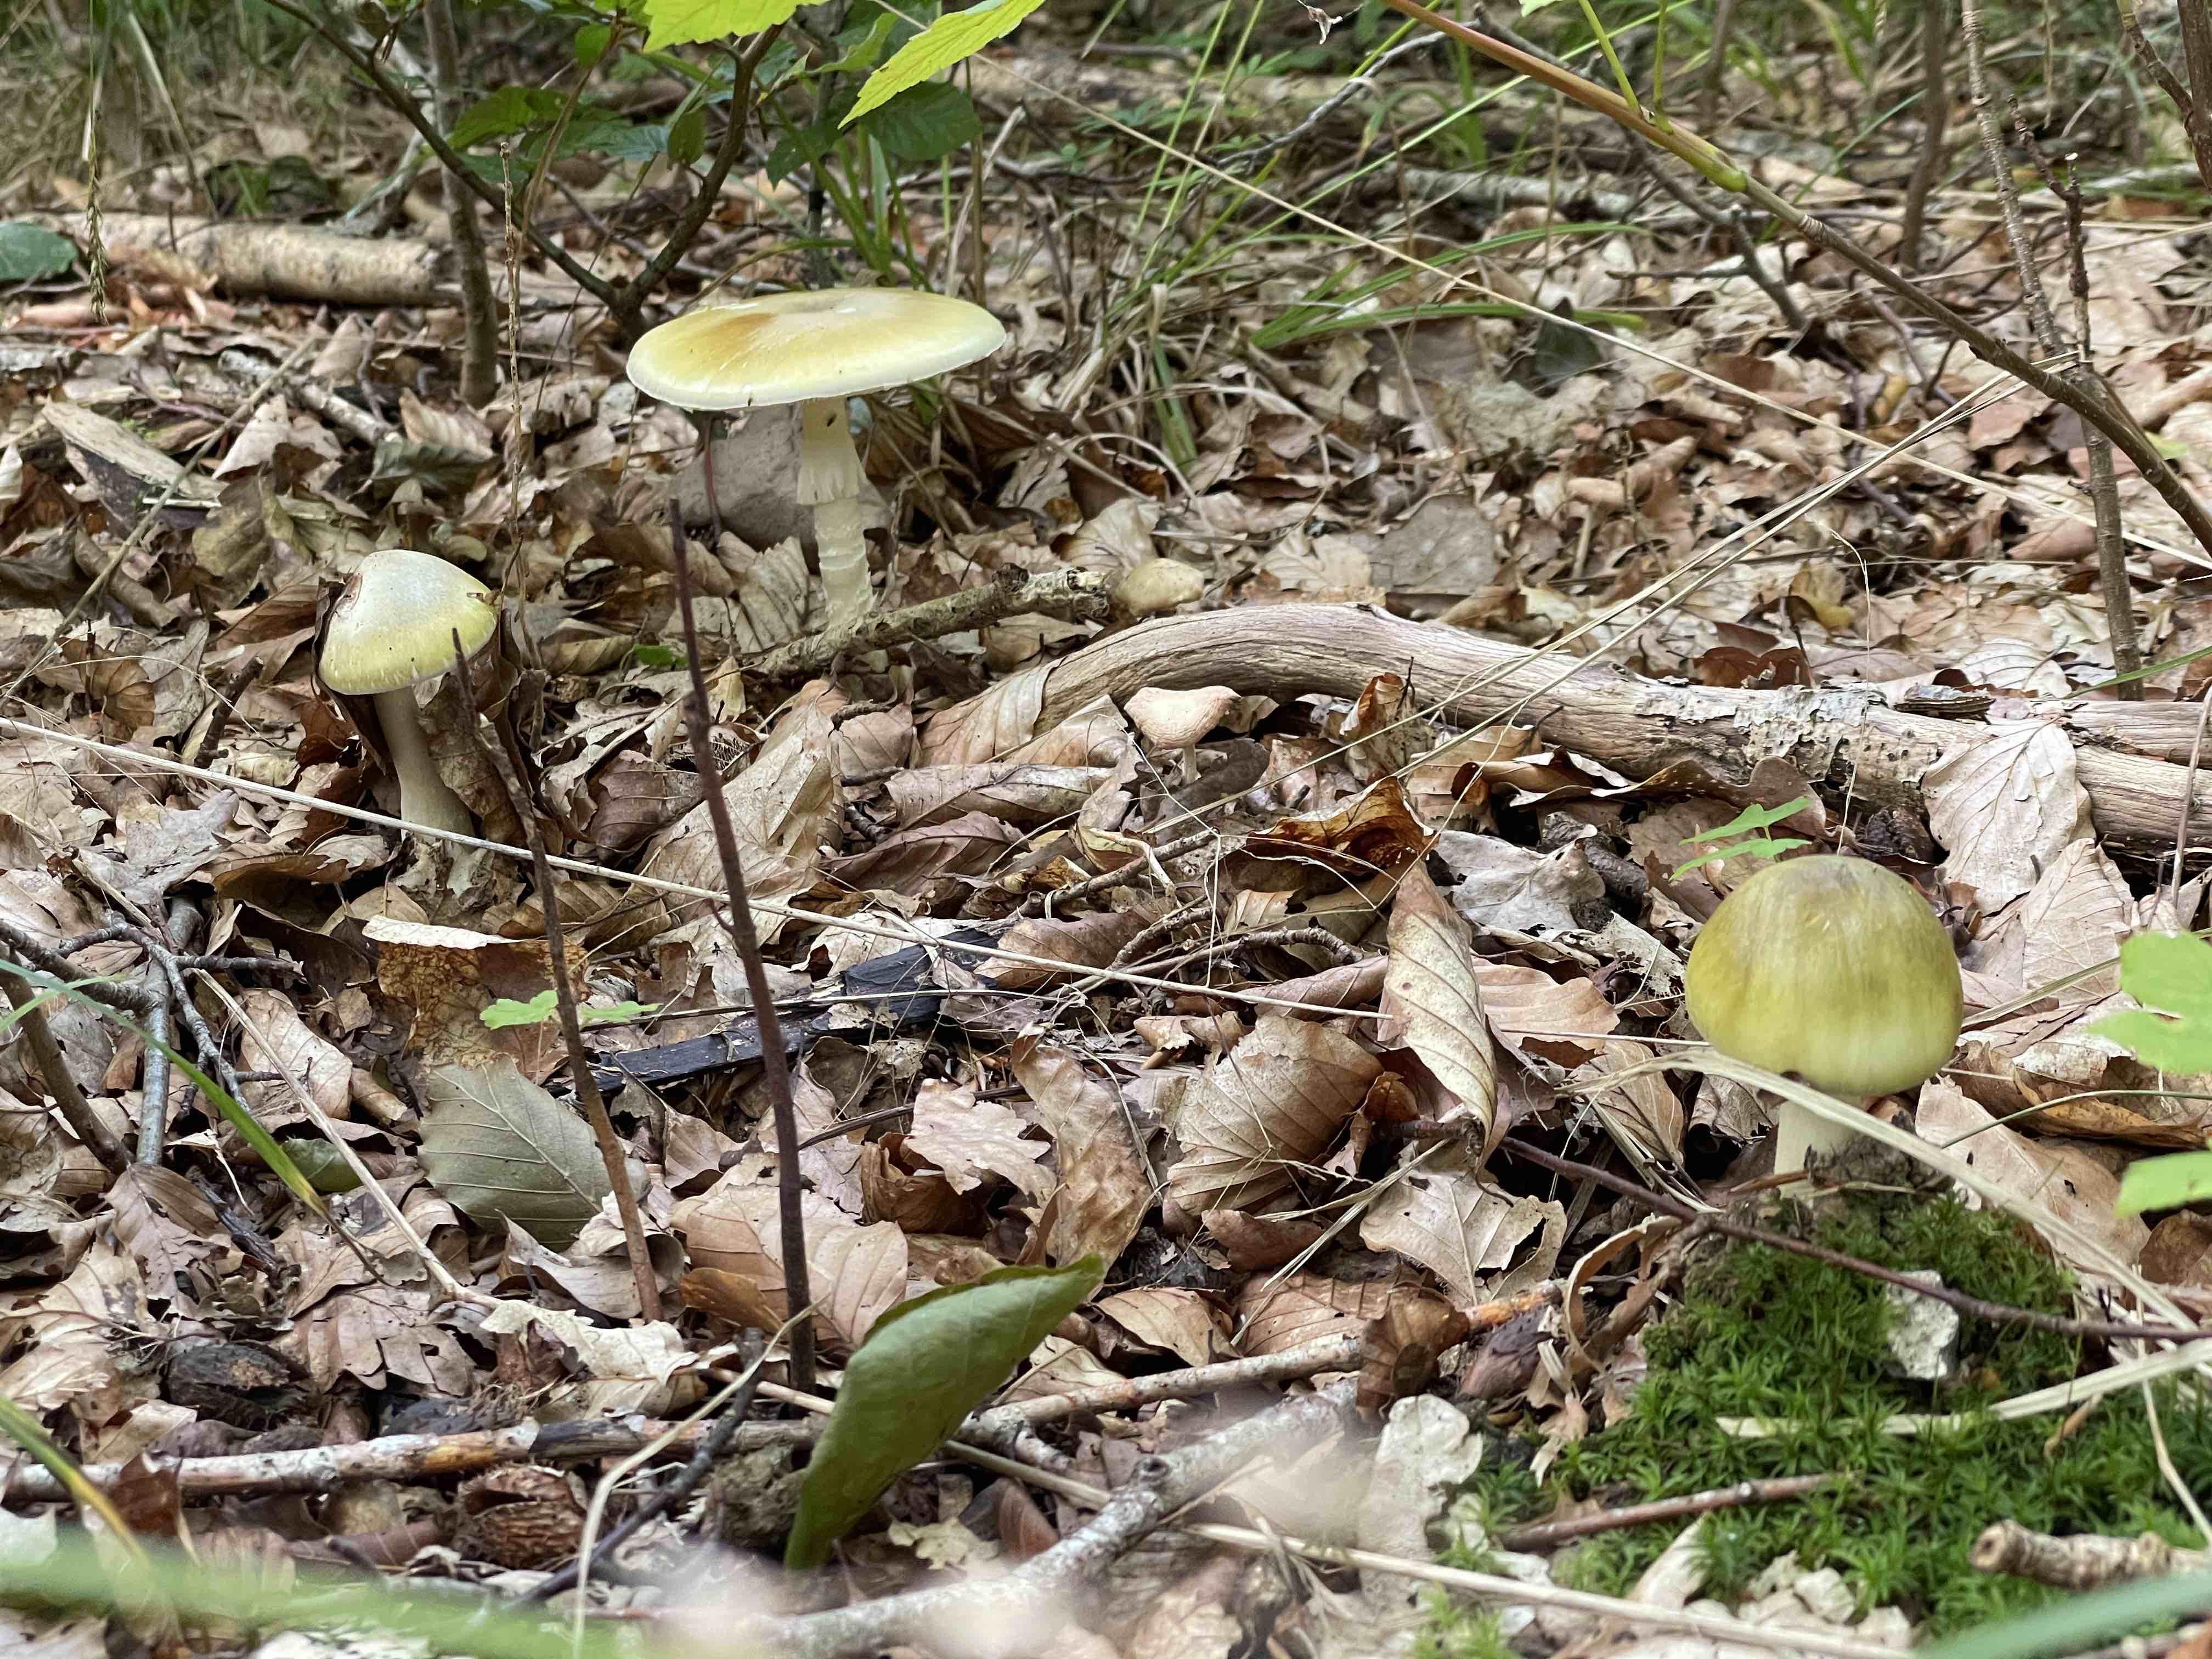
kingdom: Fungi
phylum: Basidiomycota
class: Agaricomycetes
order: Agaricales
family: Amanitaceae
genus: Amanita
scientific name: Amanita phalloides
